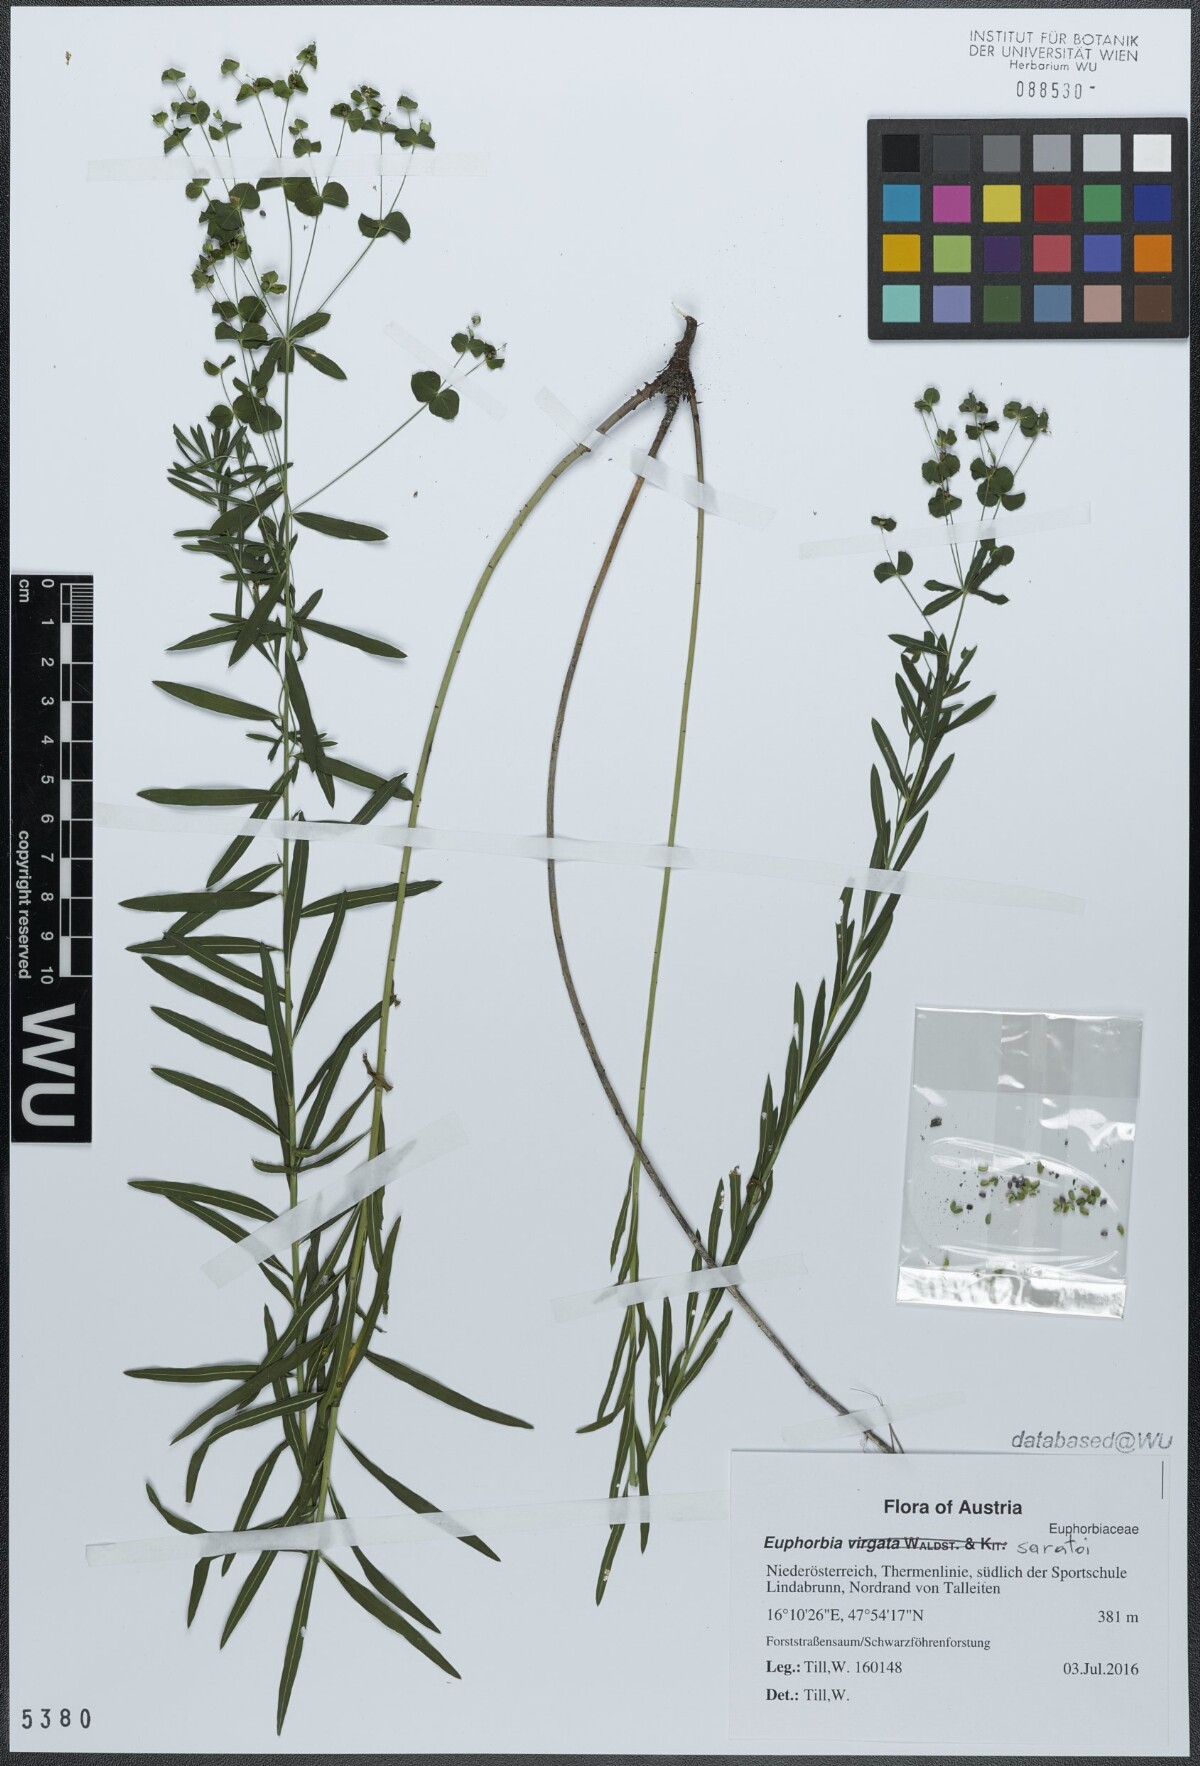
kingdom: Plantae
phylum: Tracheophyta
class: Magnoliopsida
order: Malpighiales
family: Euphorbiaceae
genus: Euphorbia
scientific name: Euphorbia saratoi
